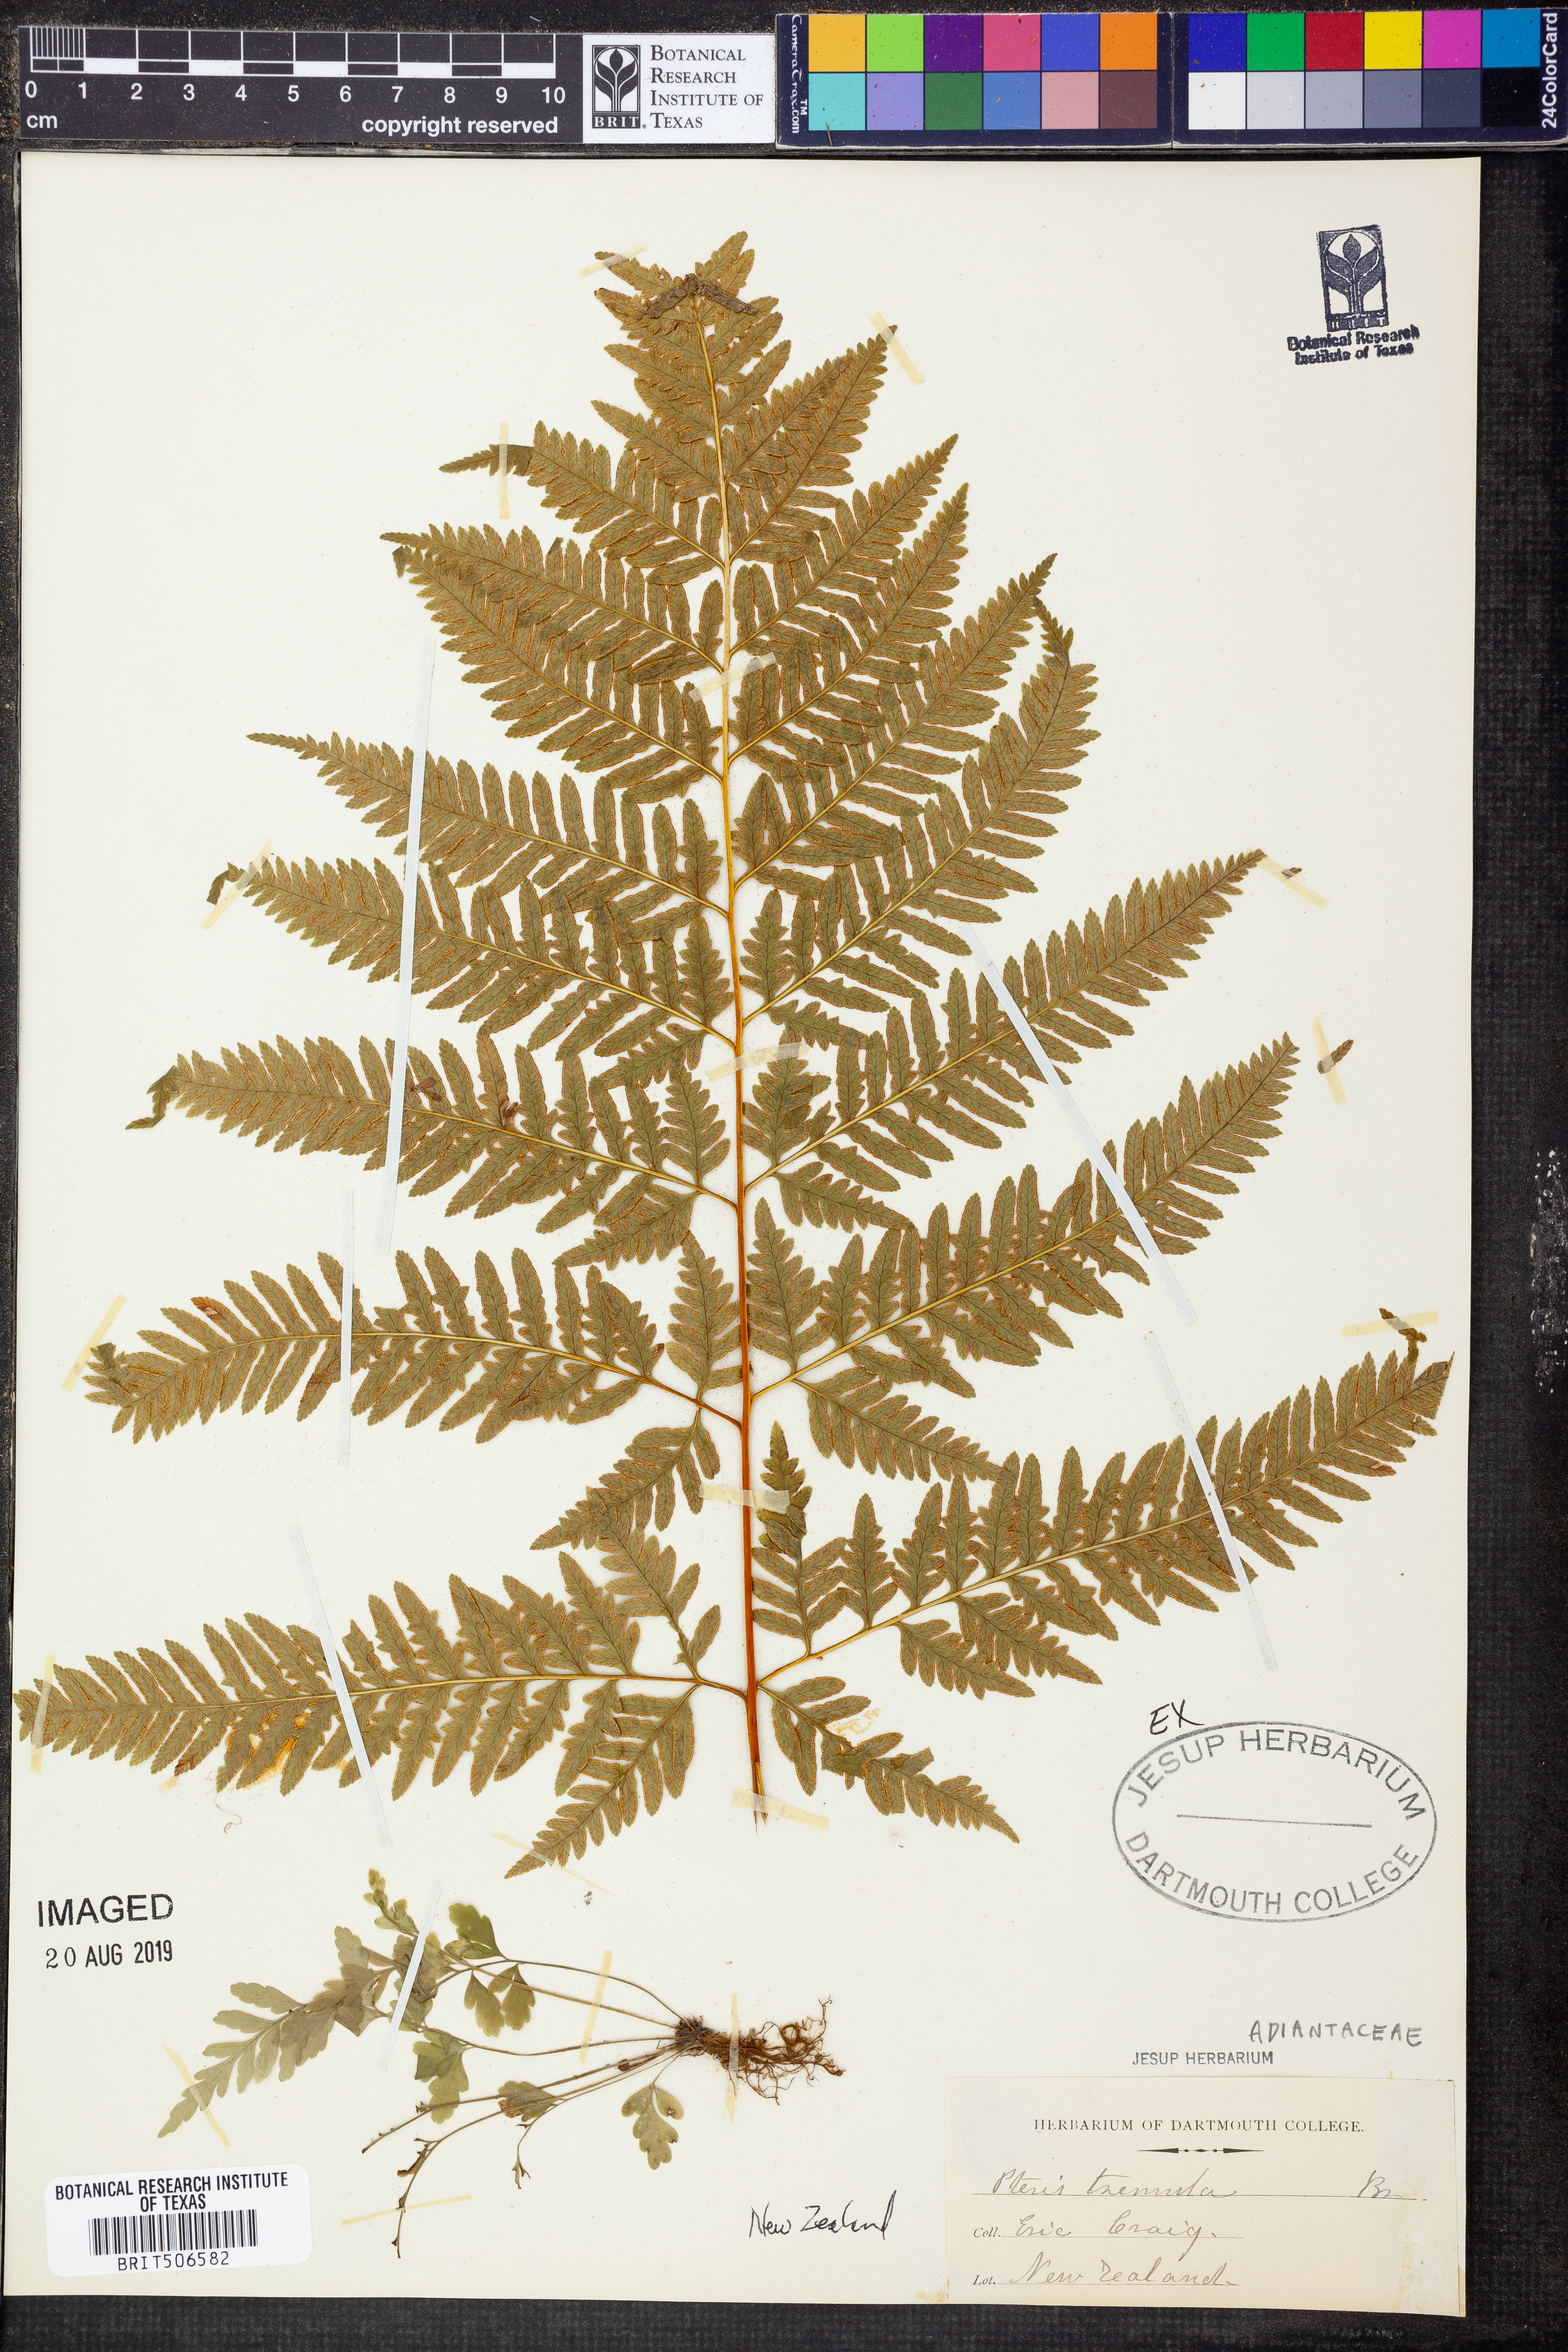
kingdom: Plantae
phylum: Tracheophyta
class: Polypodiopsida
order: Polypodiales
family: Pteridaceae
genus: Pteris
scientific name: Pteris tremula
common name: Australian brake
